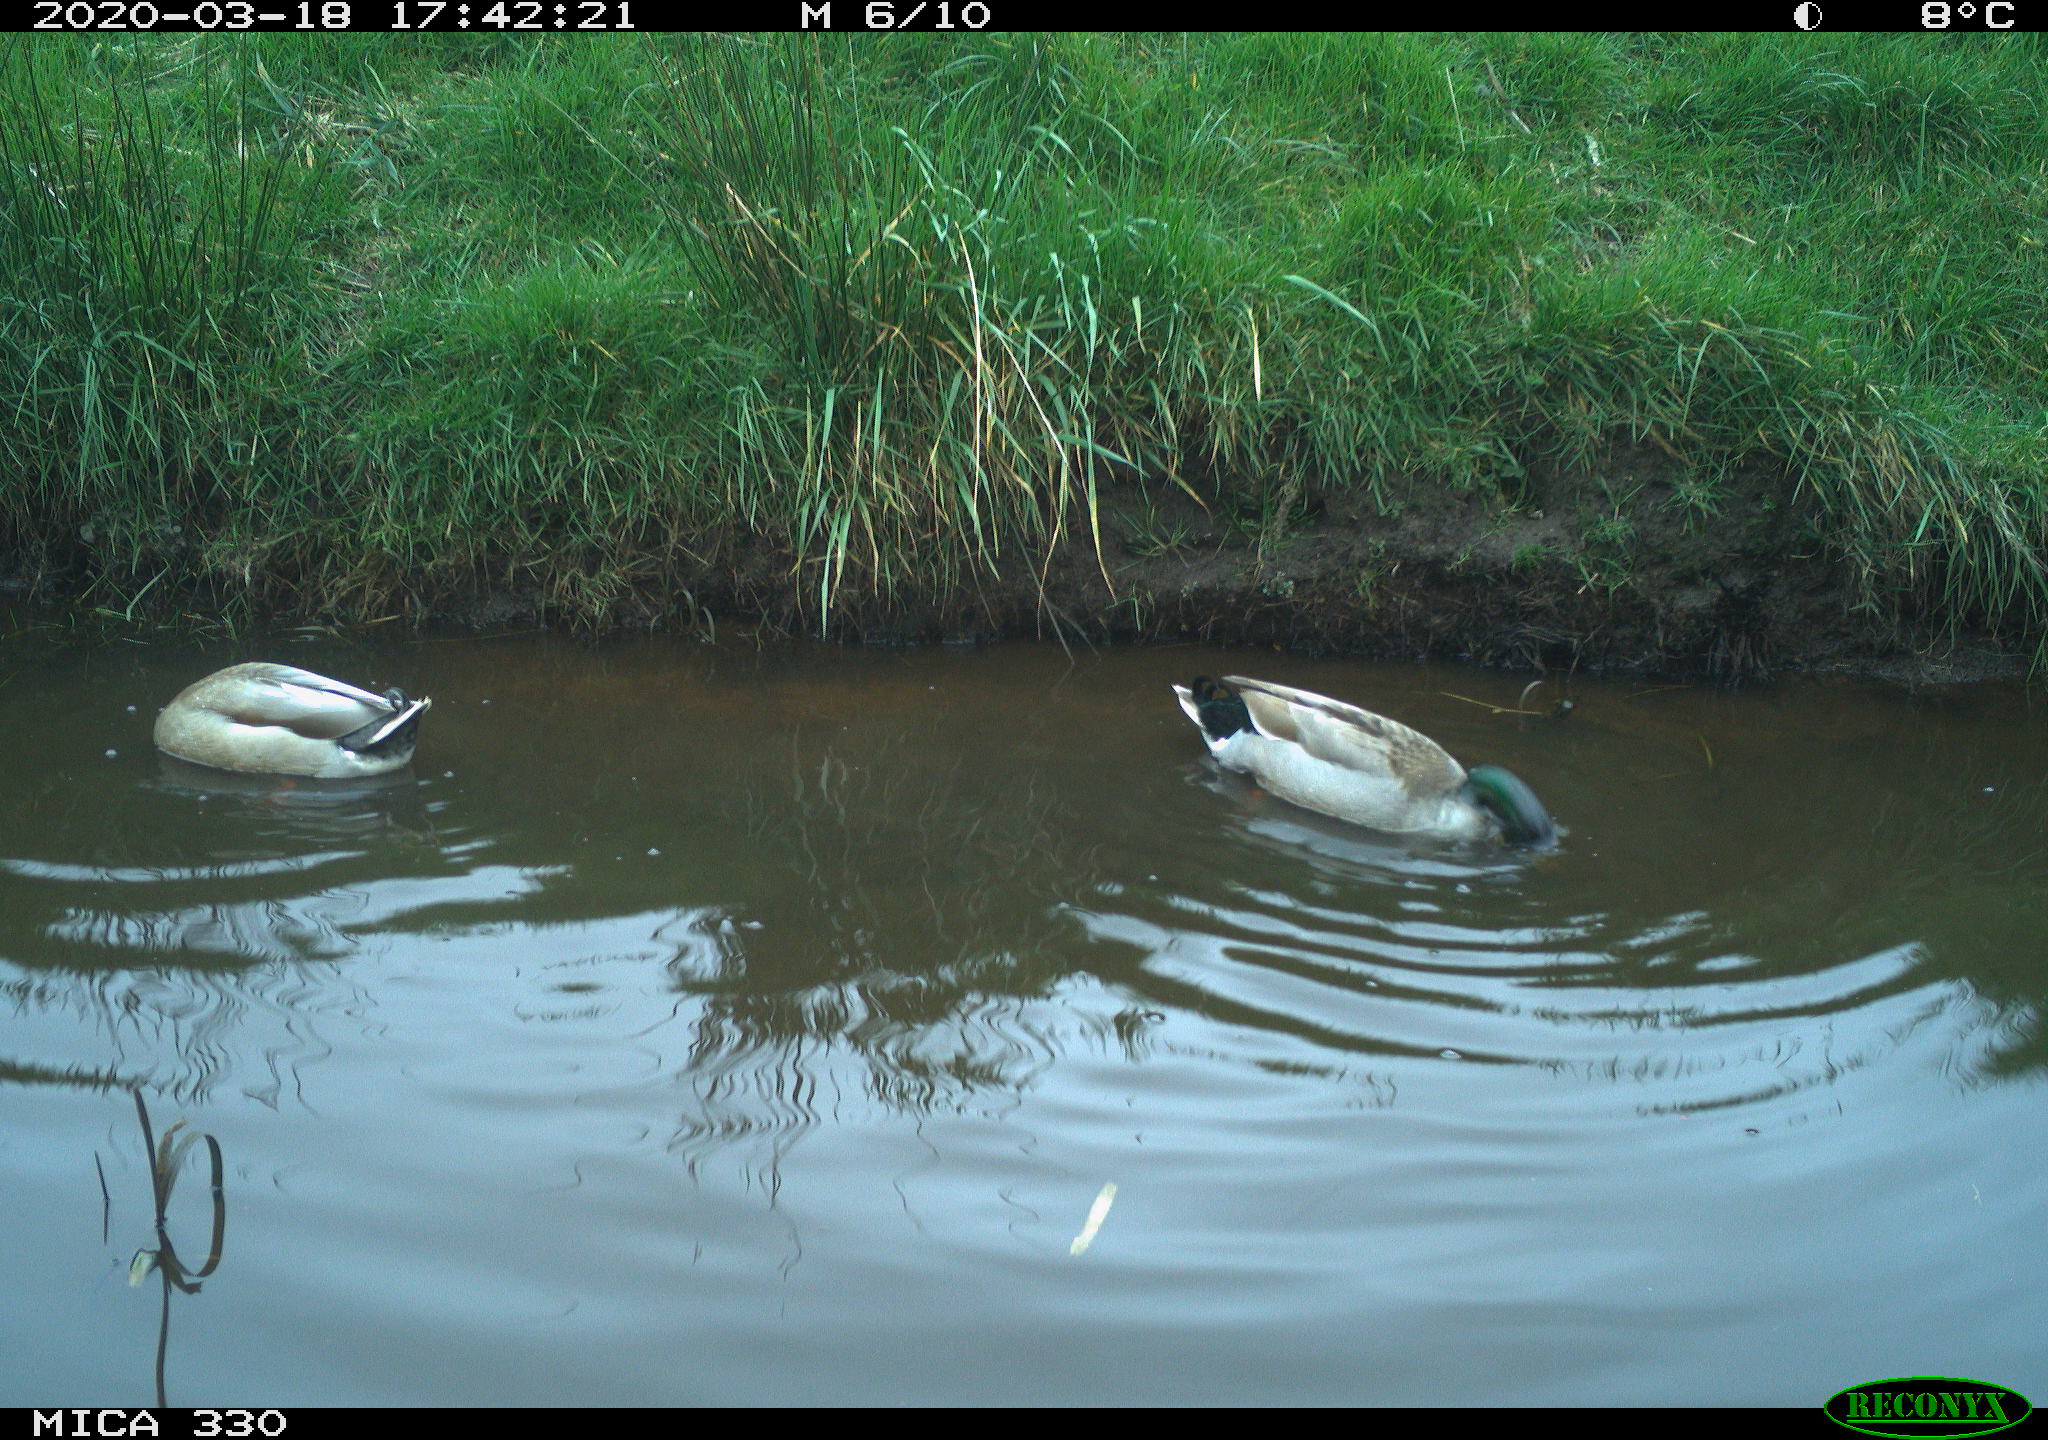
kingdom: Animalia
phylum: Chordata
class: Aves
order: Gruiformes
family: Rallidae
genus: Gallinula
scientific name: Gallinula chloropus
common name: Common moorhen
